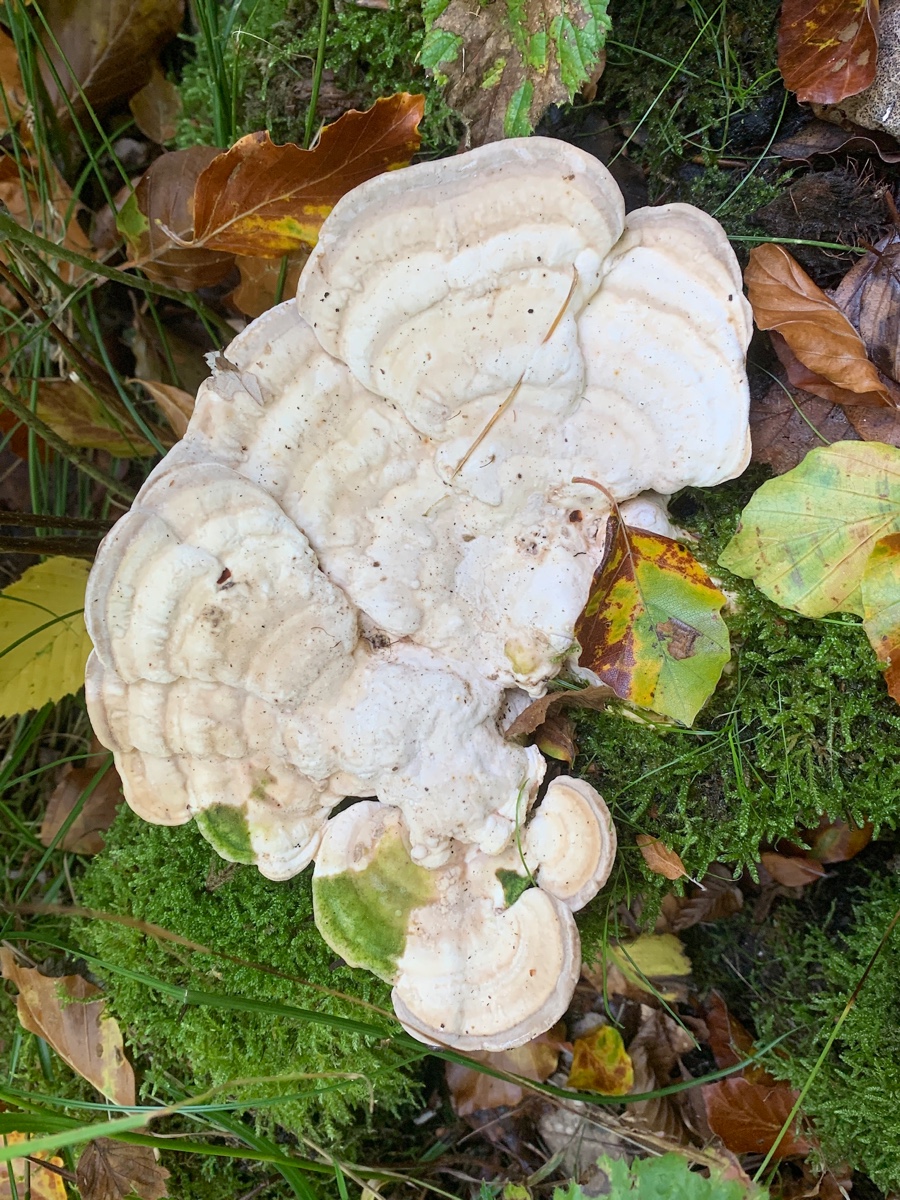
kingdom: Fungi
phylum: Basidiomycota
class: Agaricomycetes
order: Polyporales
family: Polyporaceae
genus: Trametes
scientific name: Trametes gibbosa
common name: puklet læderporesvamp
